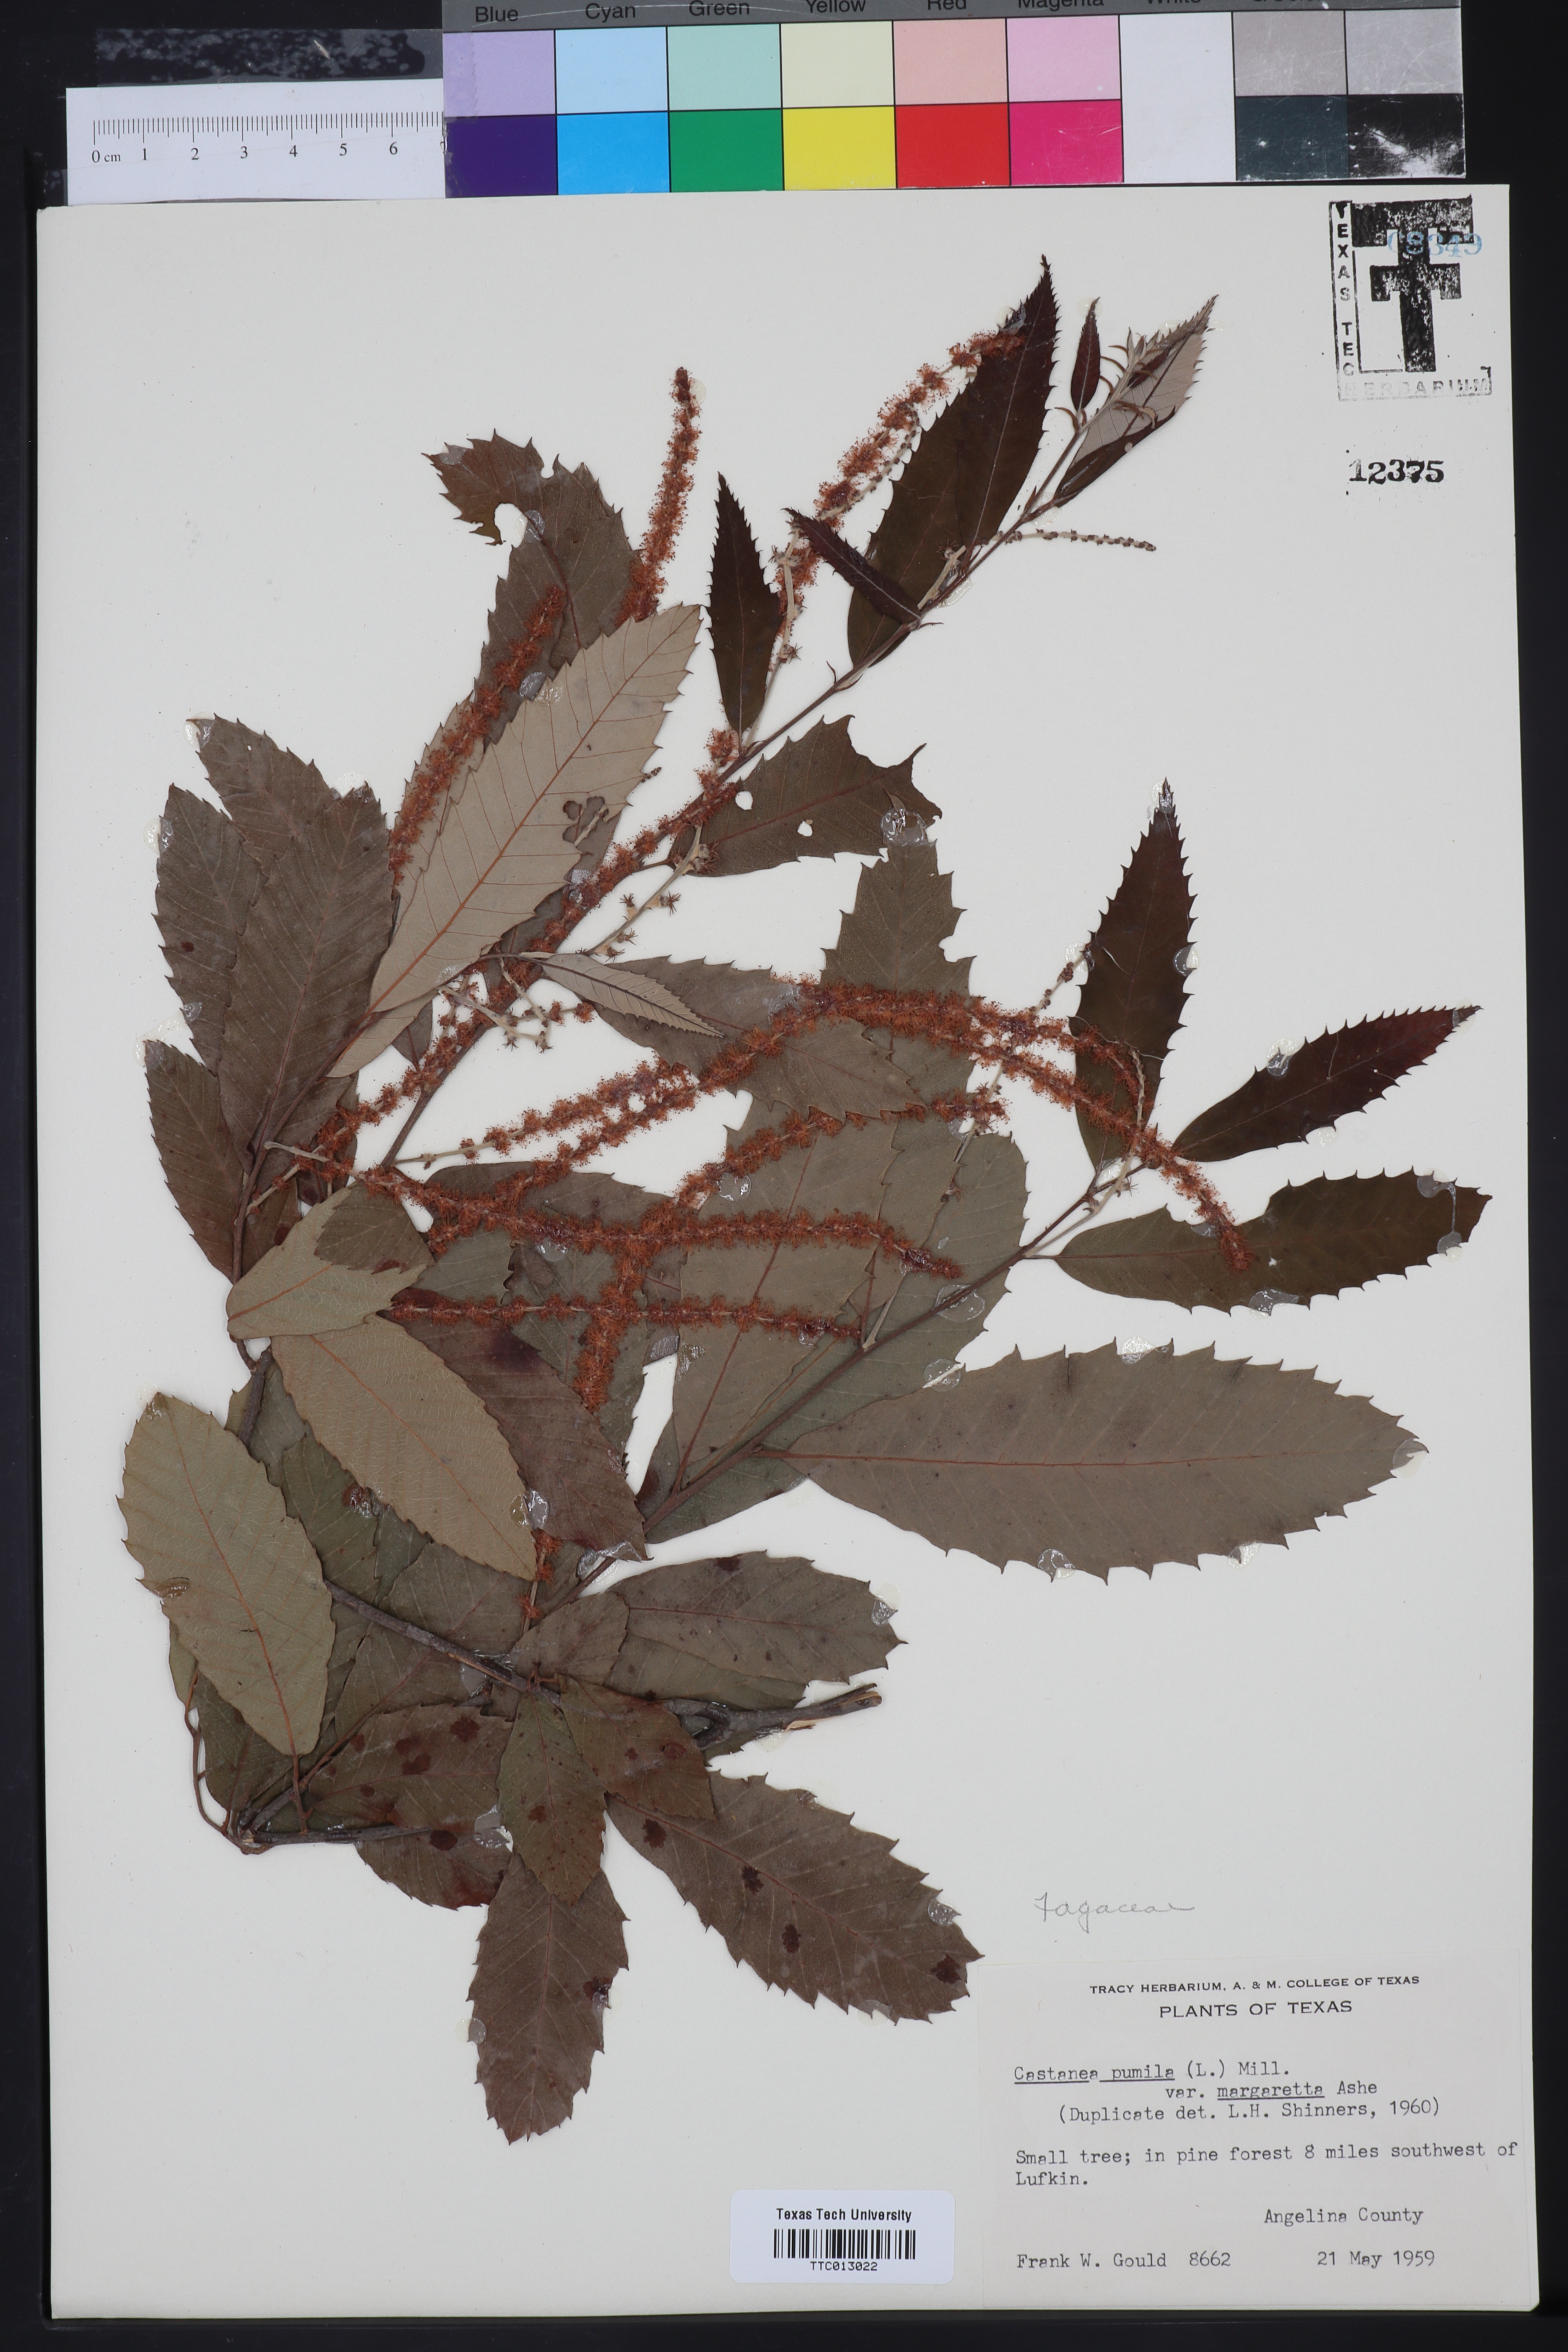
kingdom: Plantae
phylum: Tracheophyta
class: Magnoliopsida
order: Fagales
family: Fagaceae
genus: Castanea
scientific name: Castanea pumila
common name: Chinkapin
